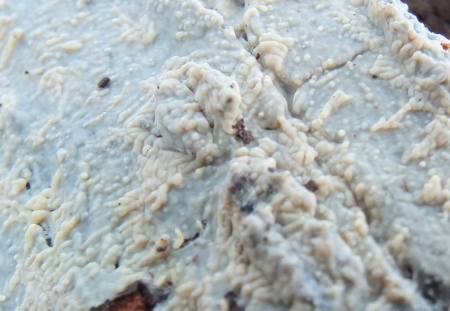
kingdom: Fungi
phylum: Basidiomycota
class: Agaricomycetes
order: Agaricales
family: Radulomycetaceae
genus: Radulomyces
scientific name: Radulomyces confluens
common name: glat naftalinskind
